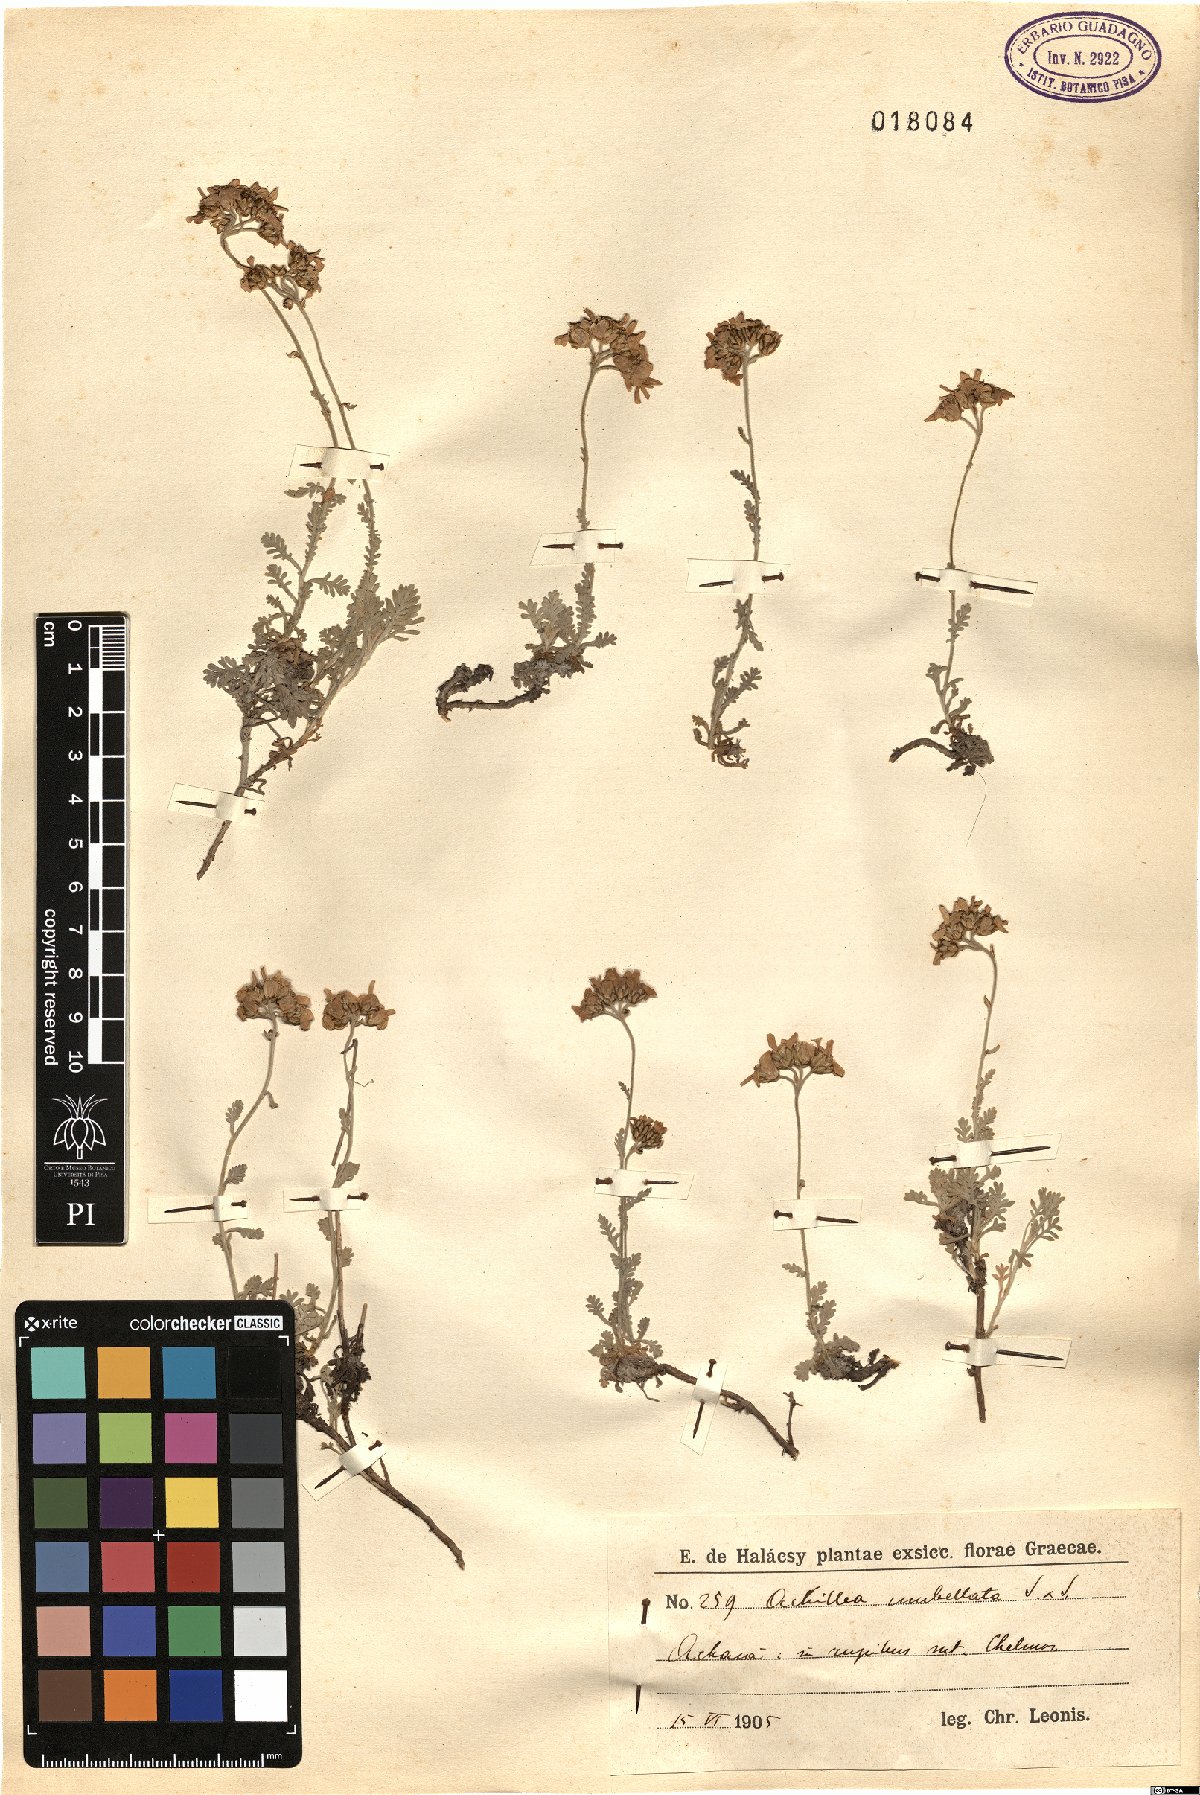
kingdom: Plantae
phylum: Tracheophyta
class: Magnoliopsida
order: Asterales
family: Asteraceae
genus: Achillea
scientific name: Achillea umbellata
